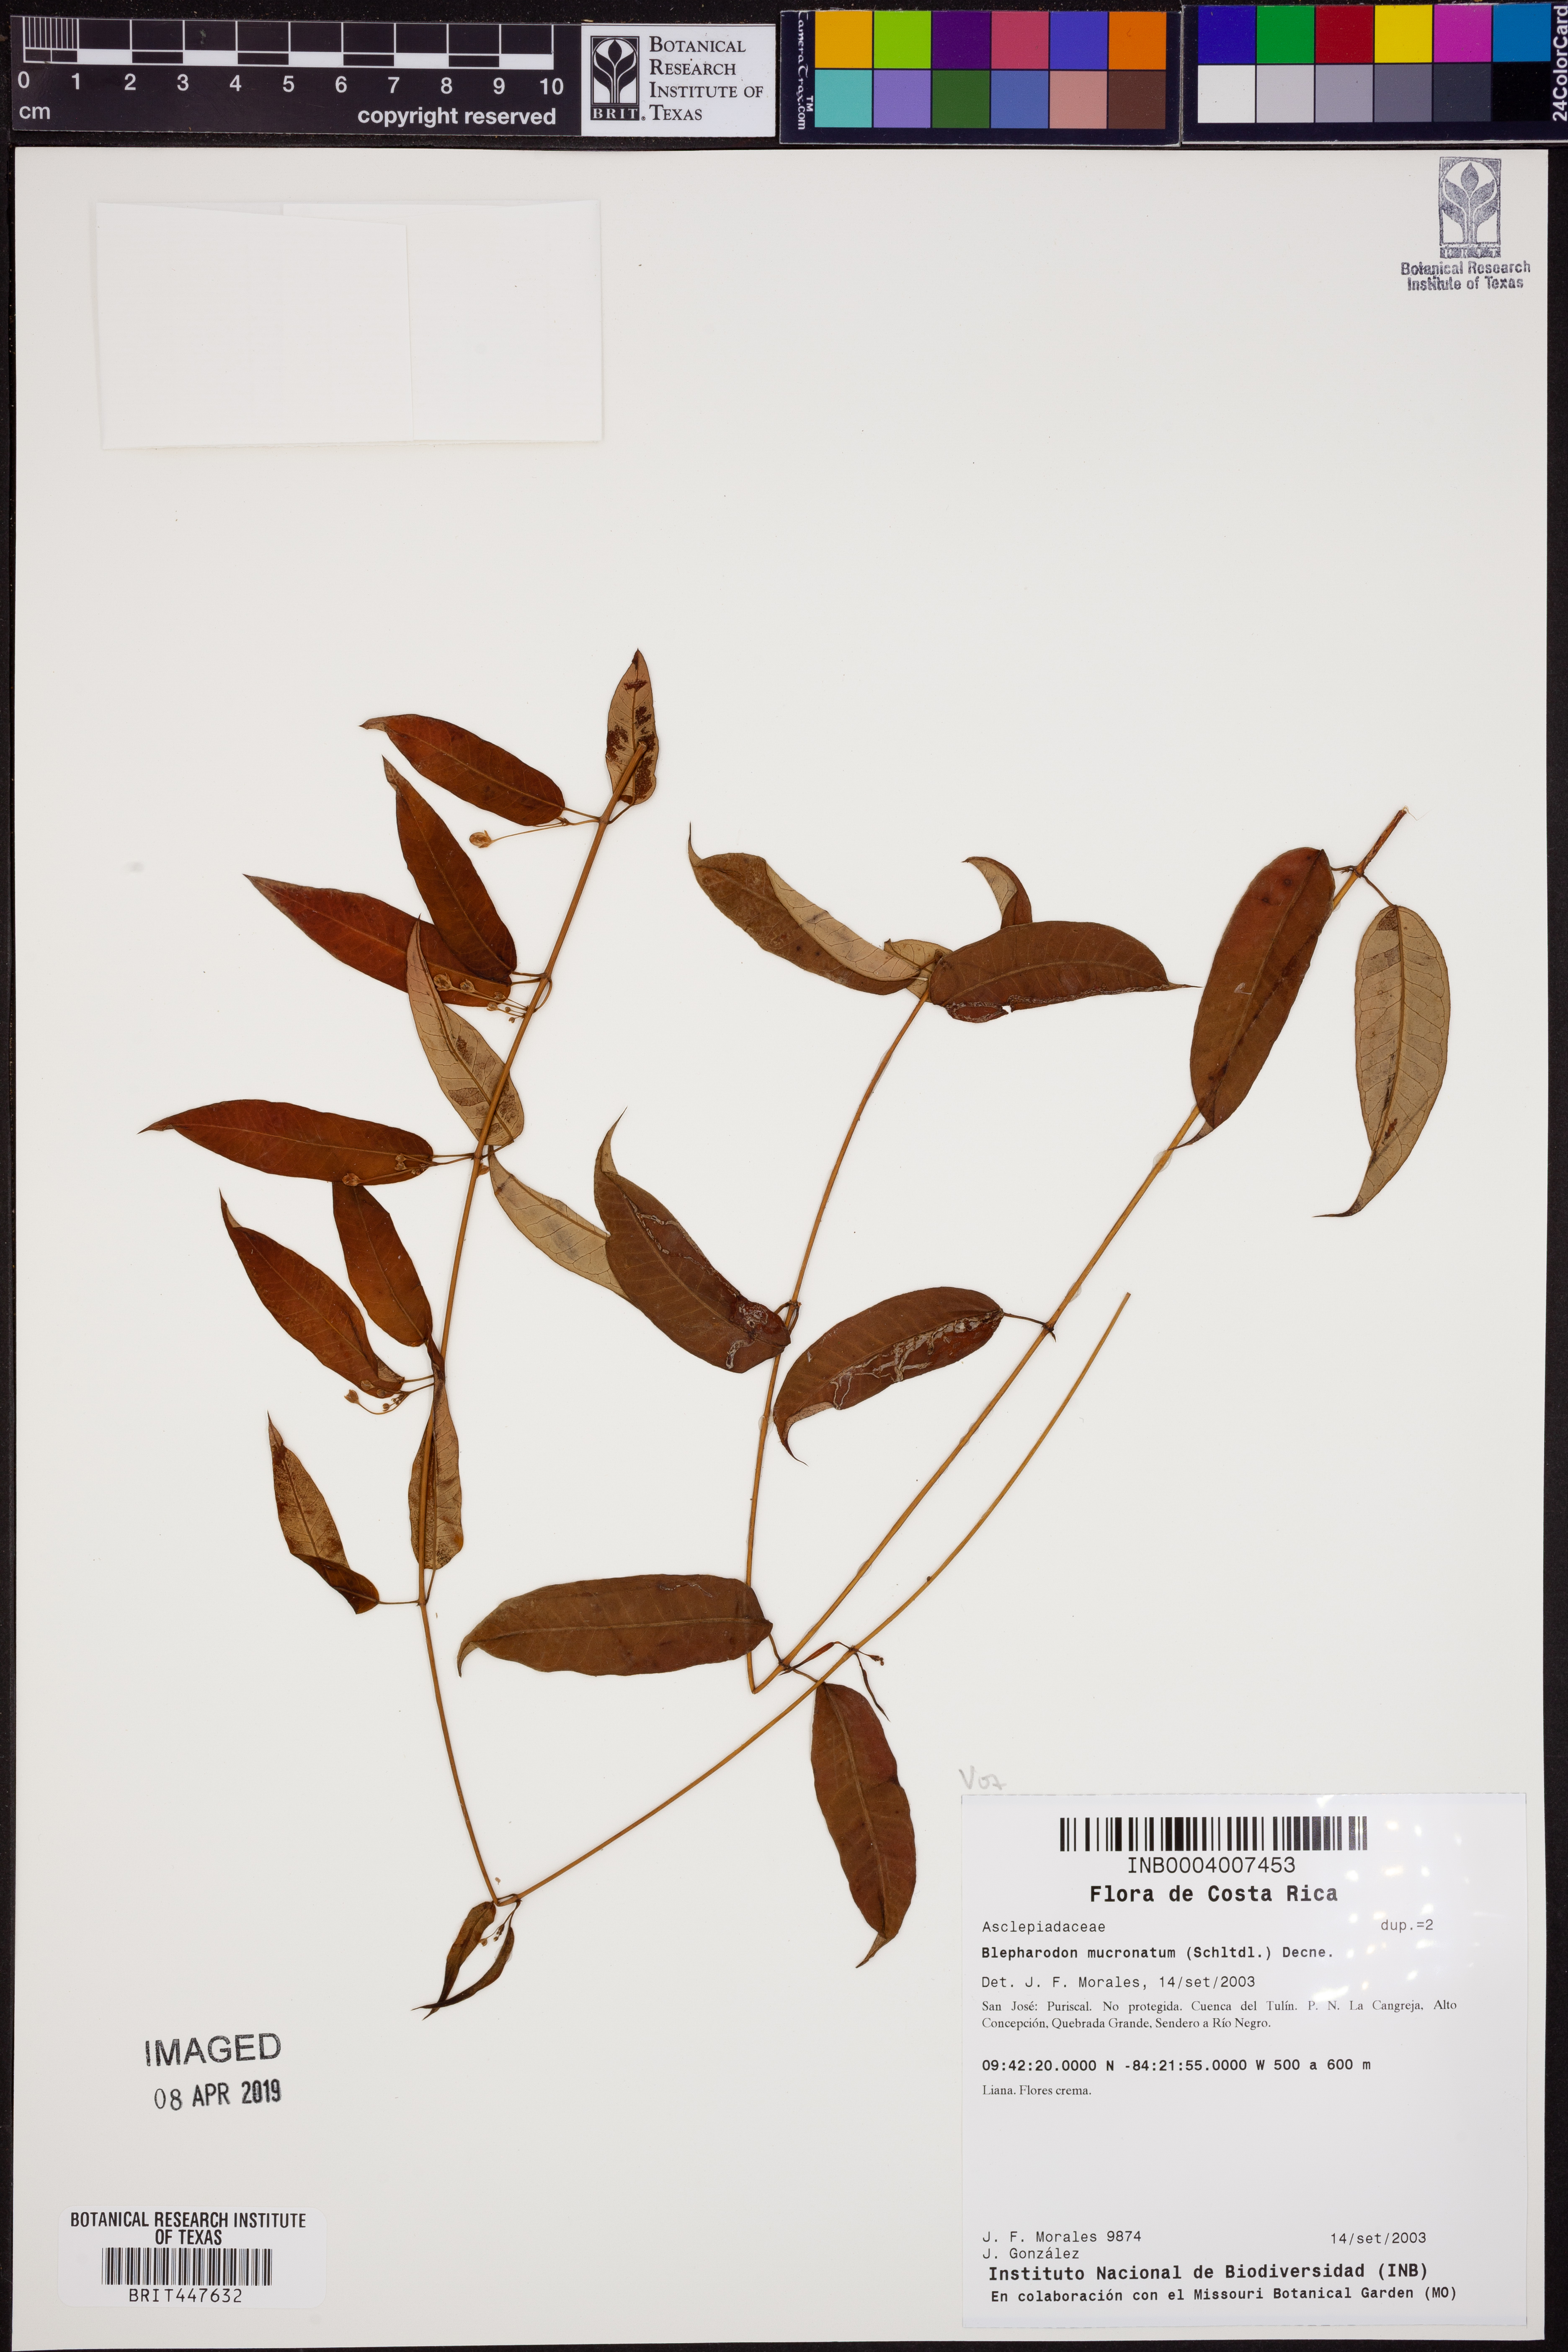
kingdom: Plantae
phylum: Tracheophyta
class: Magnoliopsida
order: Gentianales
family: Apocynaceae
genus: Vailia
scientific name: Vailia anomala
